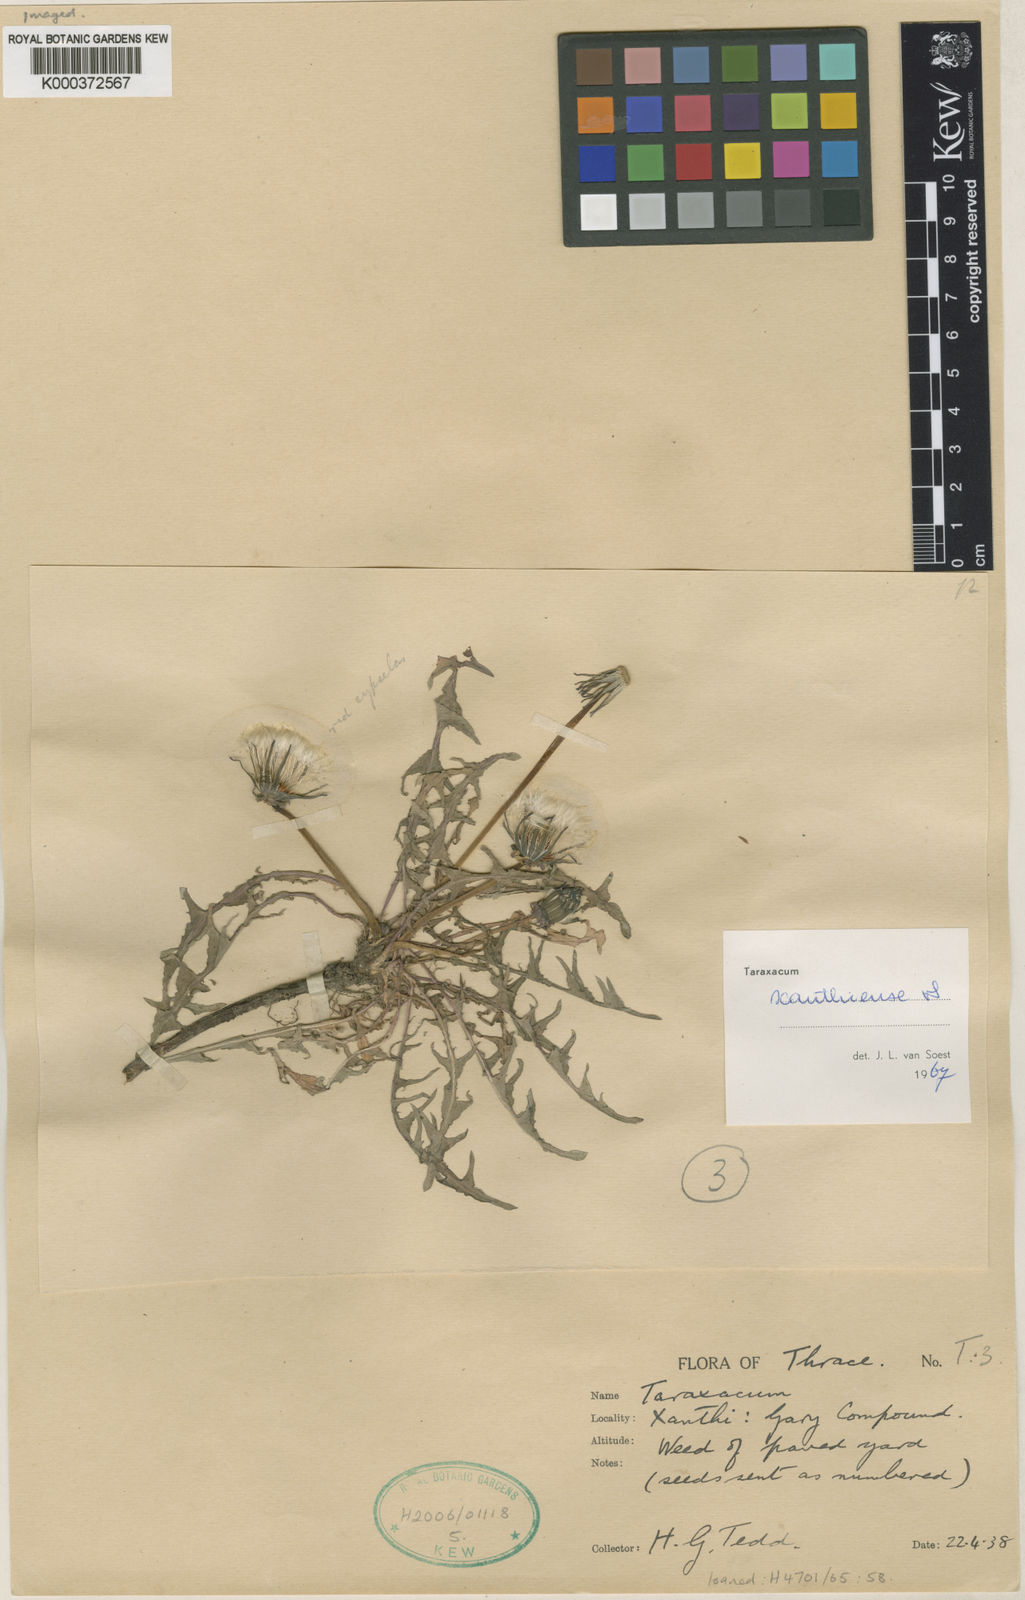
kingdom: Plantae
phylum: Tracheophyta
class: Magnoliopsida
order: Asterales
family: Asteraceae
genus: Taraxacum
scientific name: Taraxacum xanthiense
